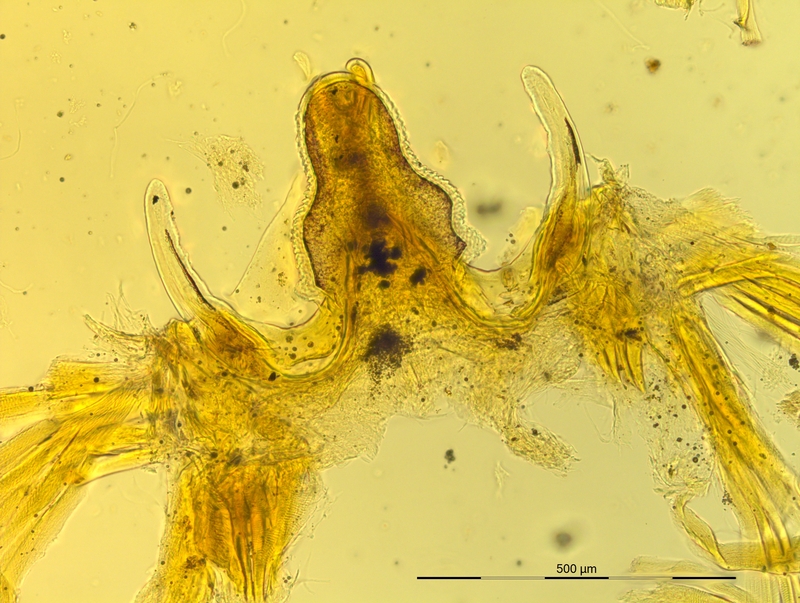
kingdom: Animalia
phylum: Arthropoda
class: Diplopoda
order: Chordeumatida
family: Craspedosomatidae
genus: Pyrgocyphosoma
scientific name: Pyrgocyphosoma ormeanum
